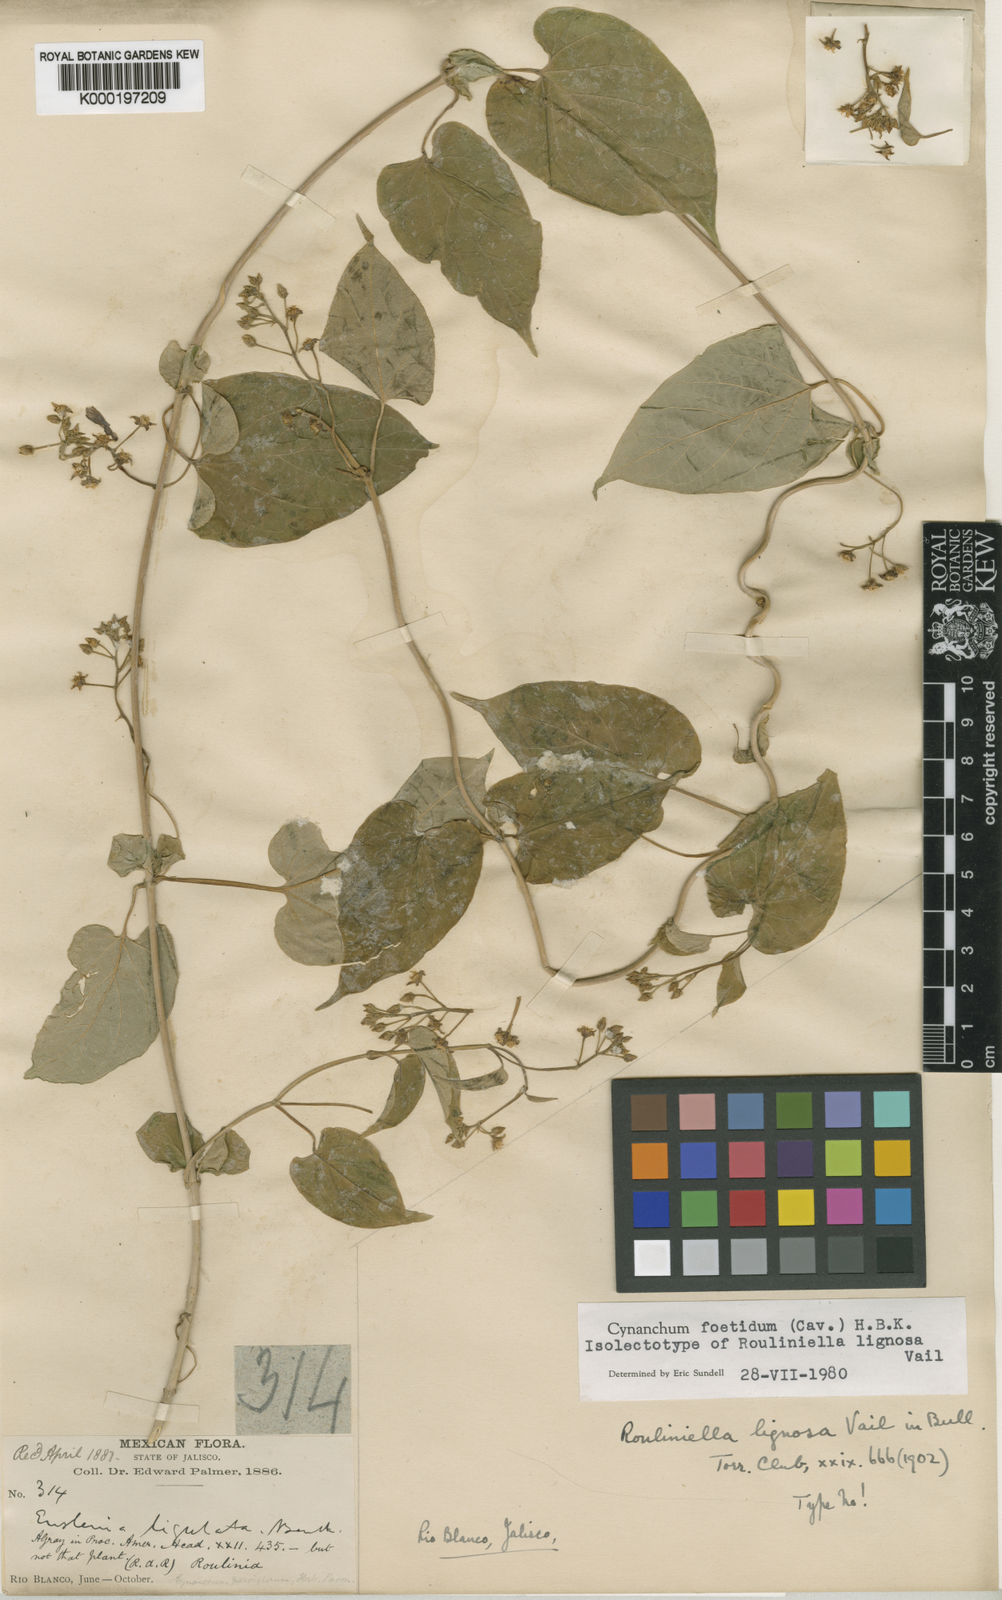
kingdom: Plantae
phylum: Tracheophyta
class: Magnoliopsida
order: Gentianales
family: Apocynaceae
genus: Cynanchum
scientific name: Cynanchum foetidum
